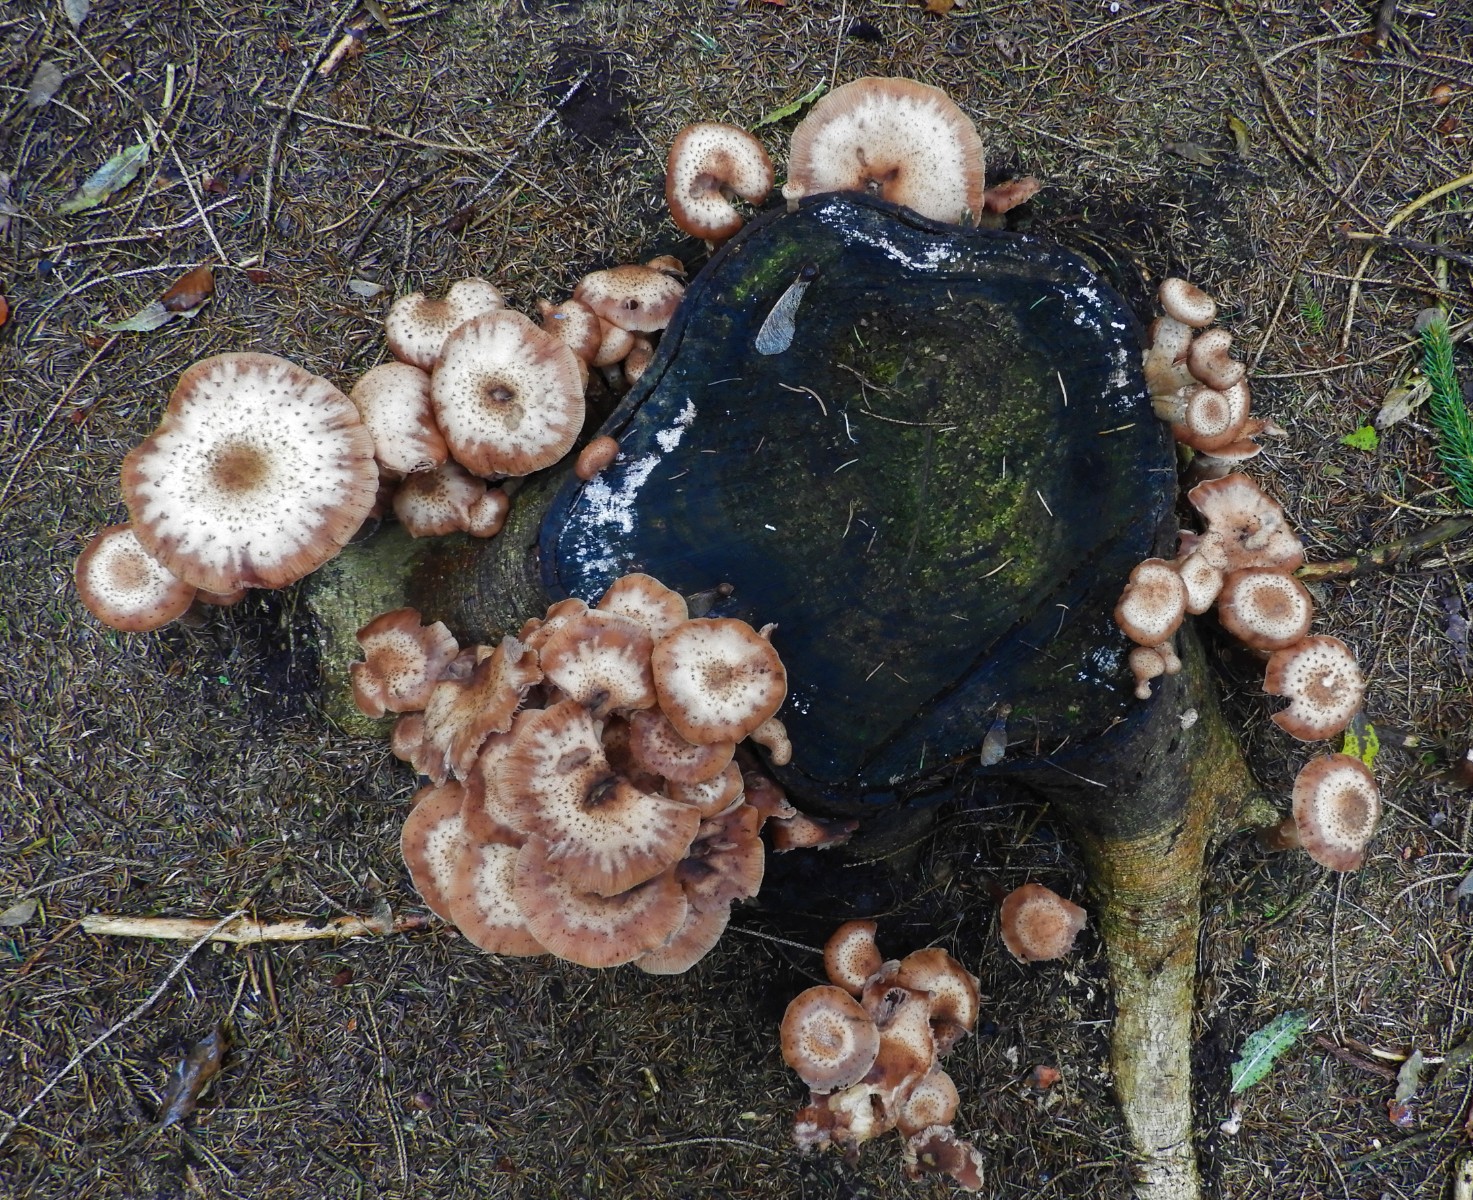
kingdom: Fungi
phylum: Basidiomycota
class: Agaricomycetes
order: Agaricales
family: Physalacriaceae
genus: Armillaria
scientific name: Armillaria ostoyae
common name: mørk honningsvamp
